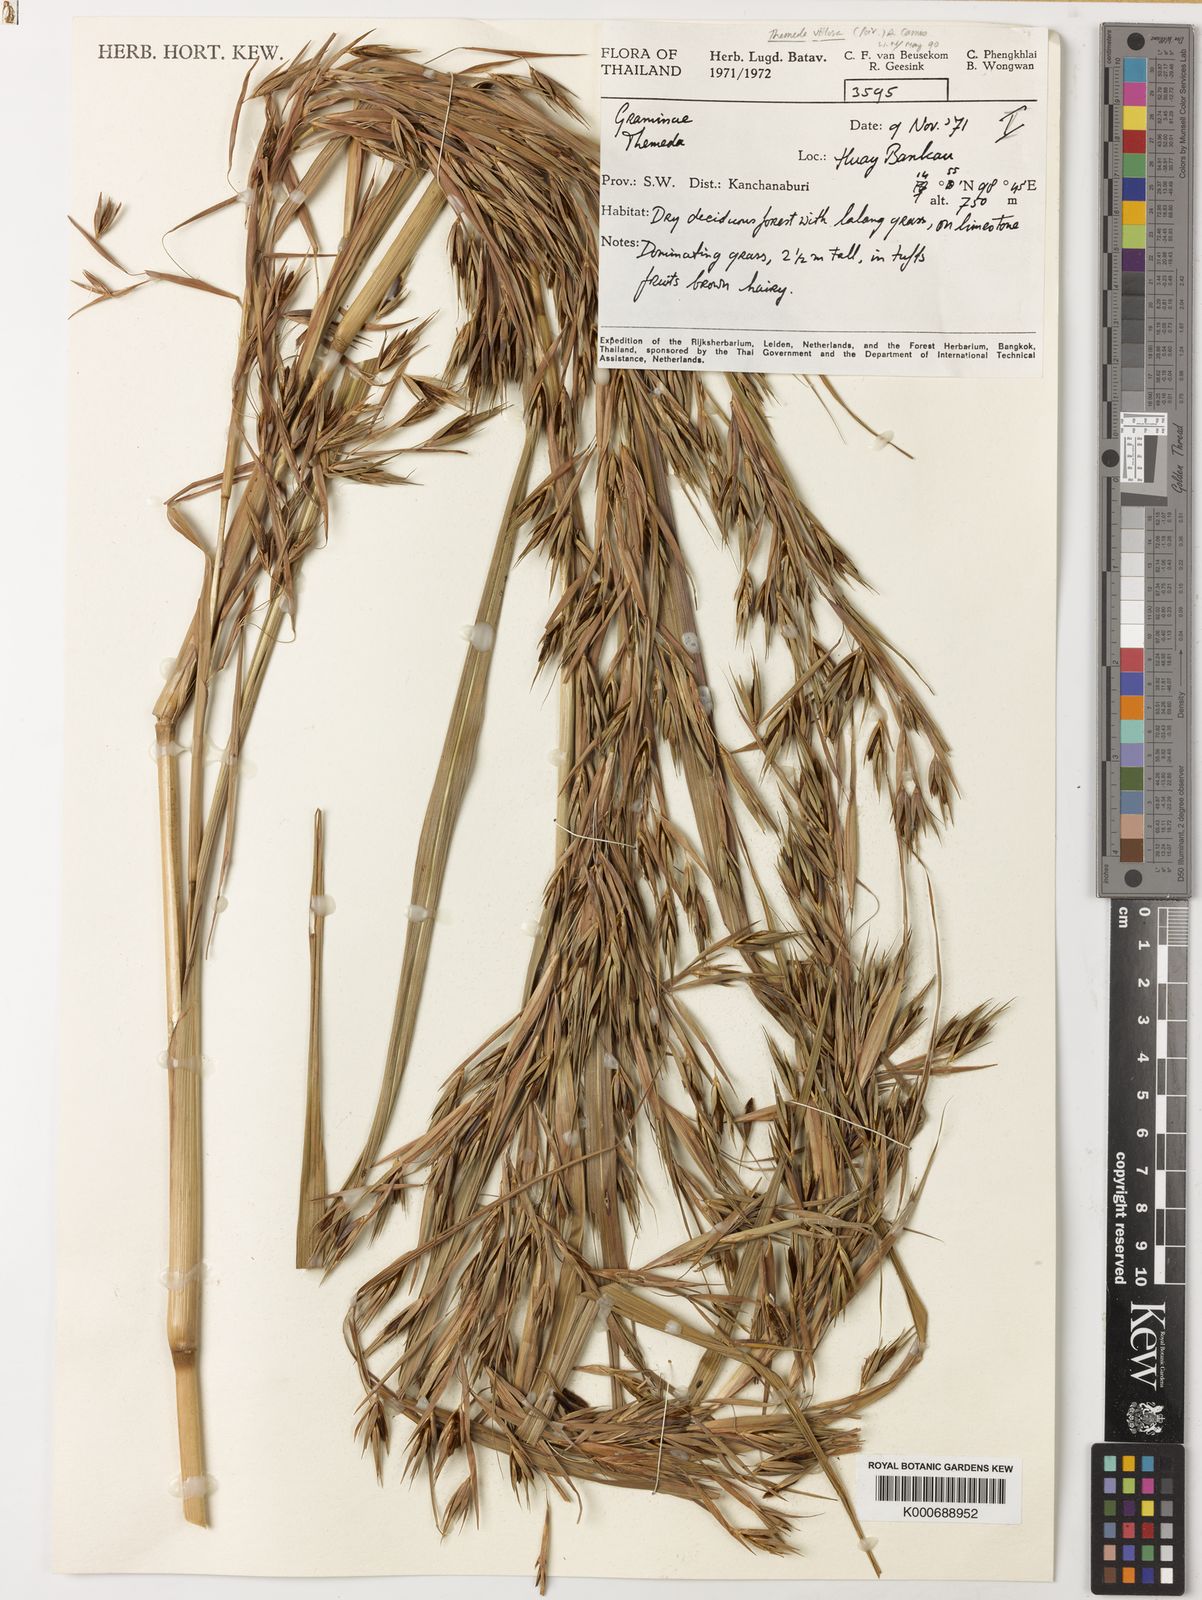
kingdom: Plantae
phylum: Tracheophyta
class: Liliopsida
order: Poales
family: Poaceae
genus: Themeda
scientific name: Themeda villosa
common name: Silky kangaroo grass
